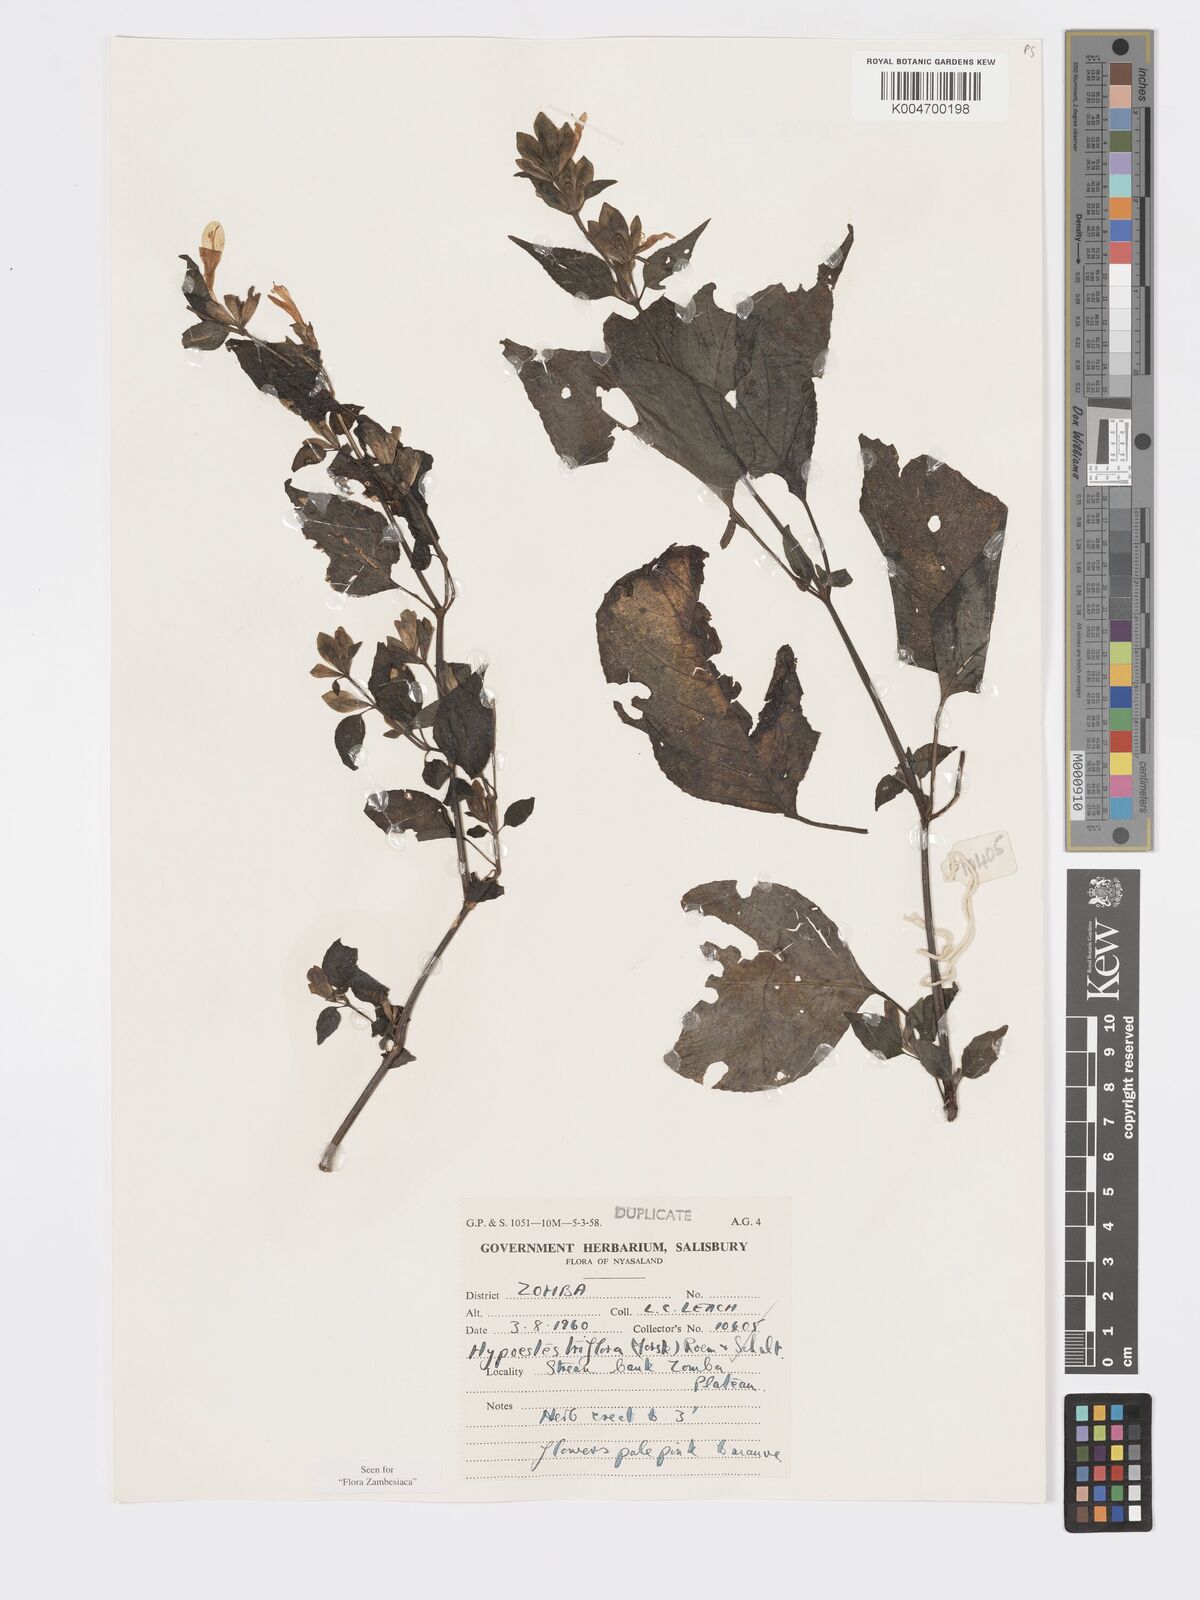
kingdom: Plantae
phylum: Tracheophyta
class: Magnoliopsida
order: Lamiales
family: Acanthaceae
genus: Hypoestes
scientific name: Hypoestes triflora
